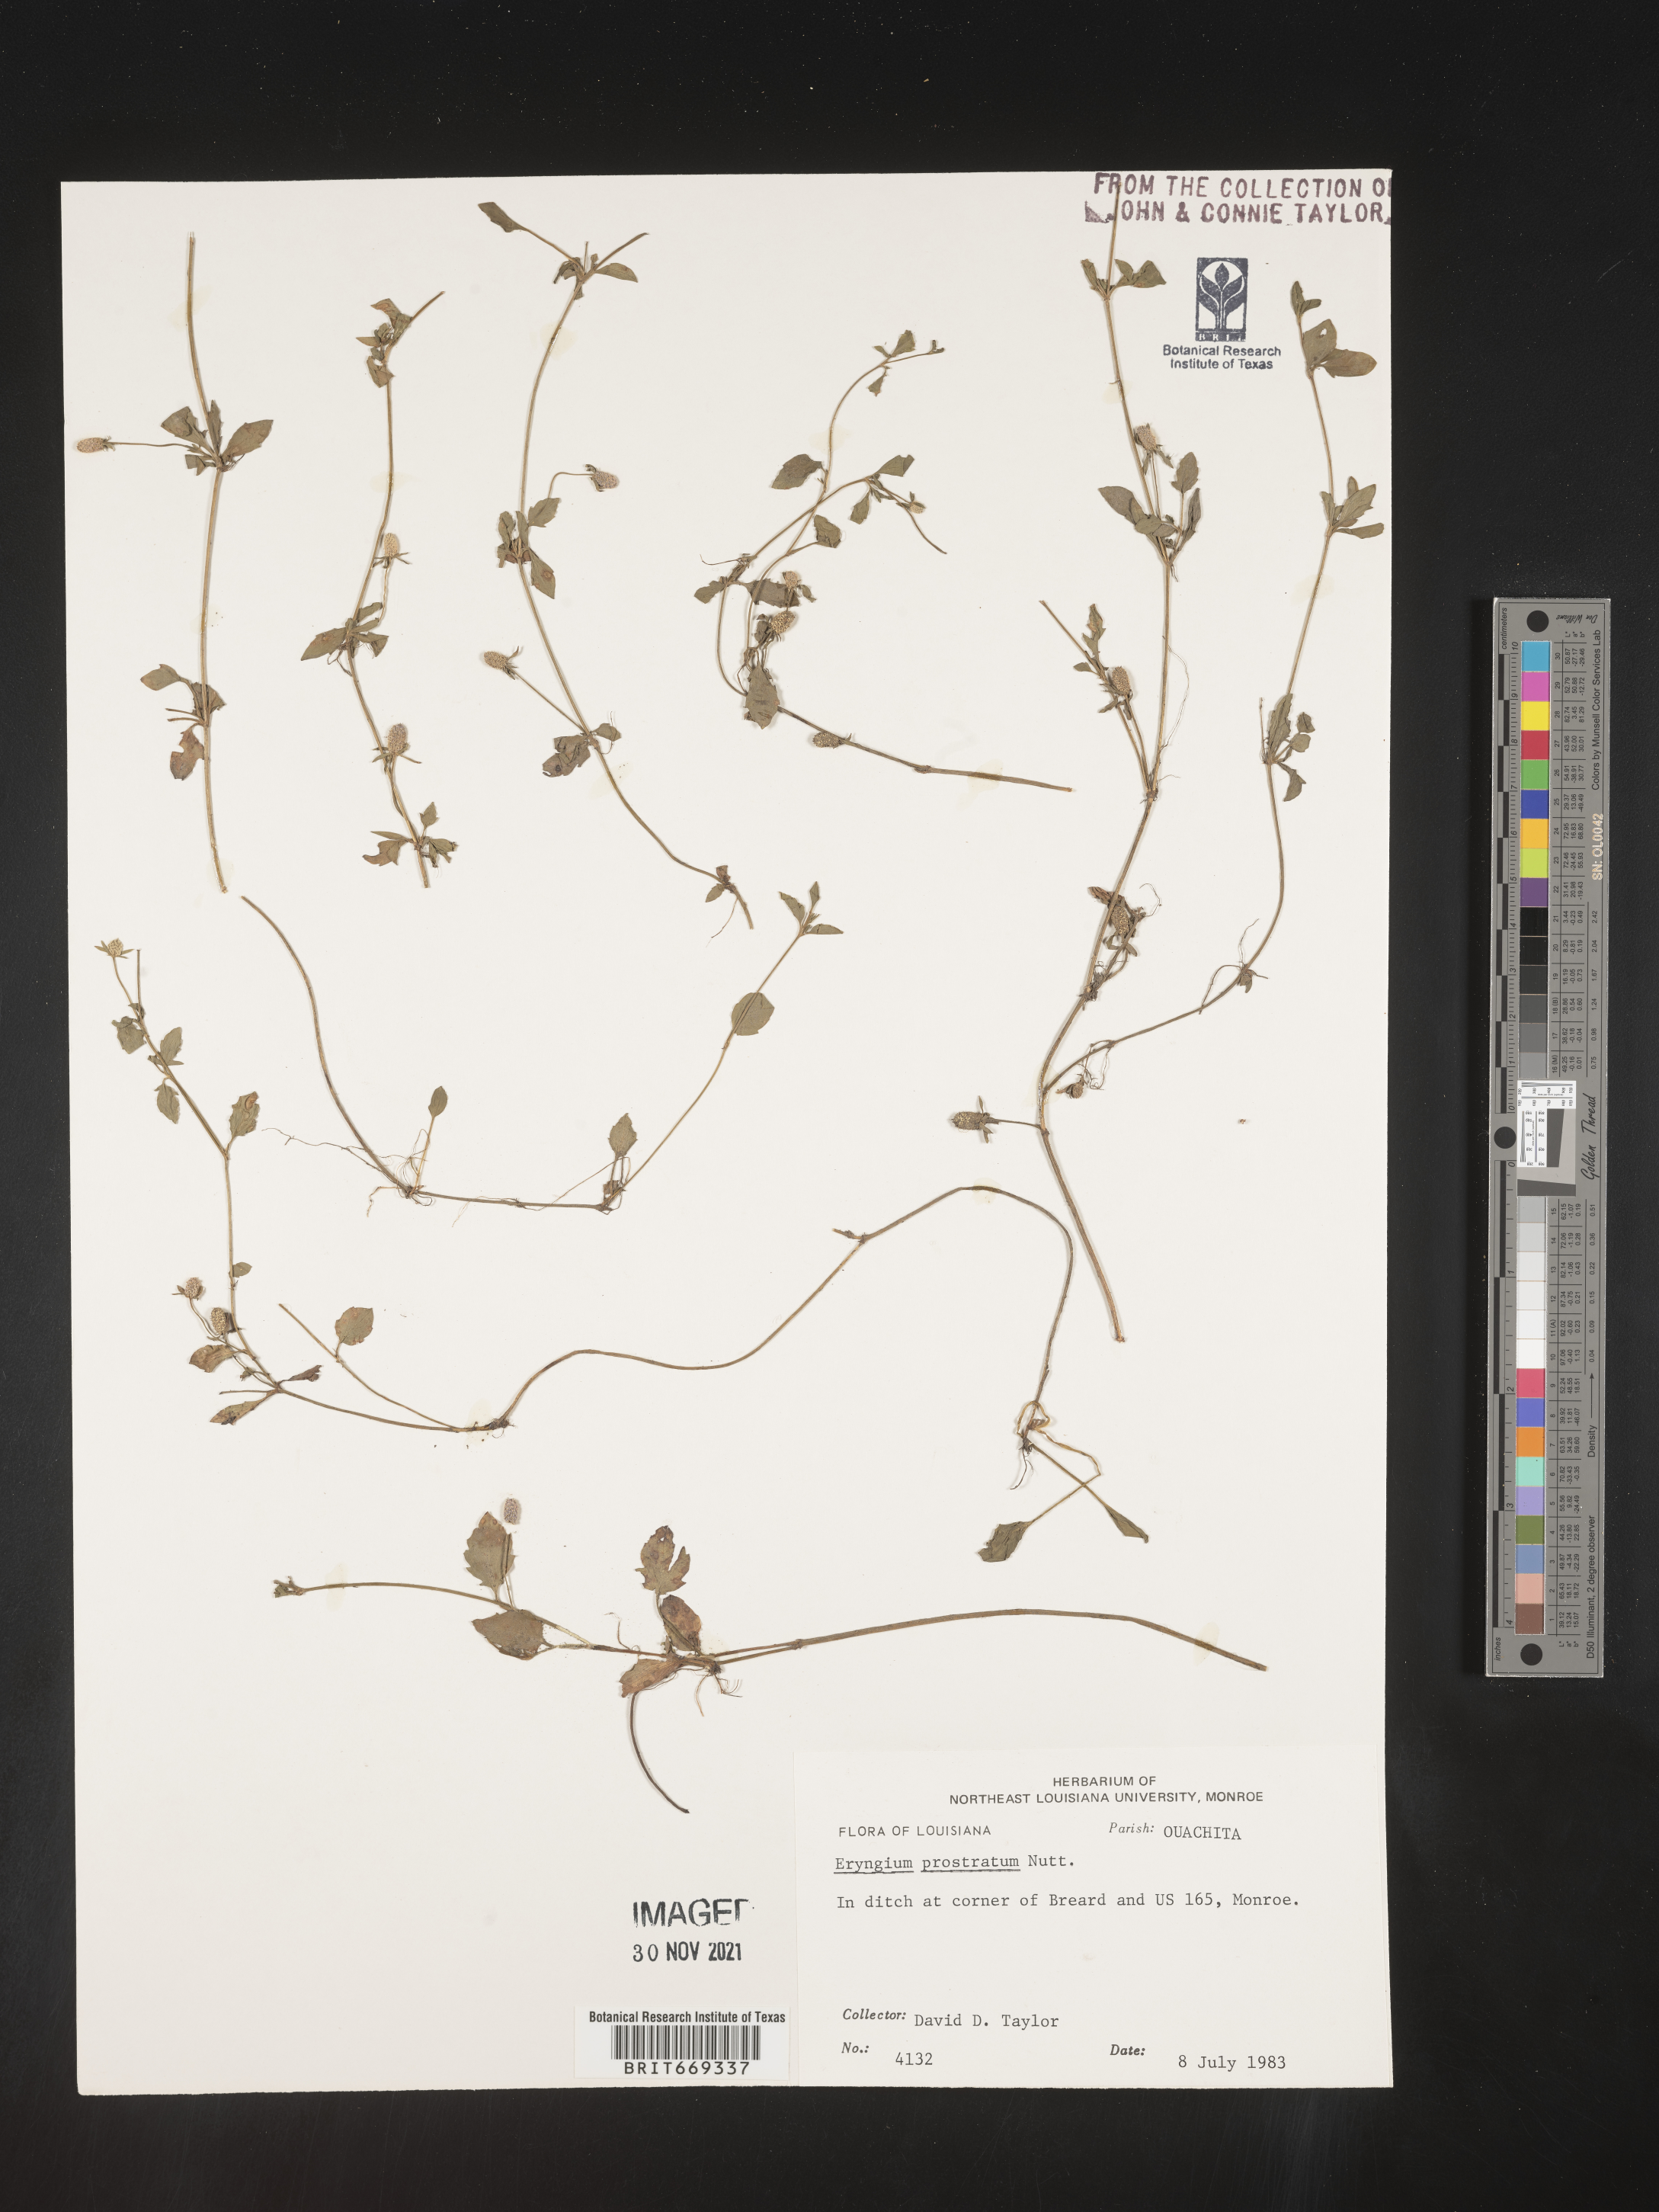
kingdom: Plantae
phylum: Tracheophyta
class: Magnoliopsida
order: Apiales
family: Apiaceae
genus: Eryngium
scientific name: Eryngium prostratum
